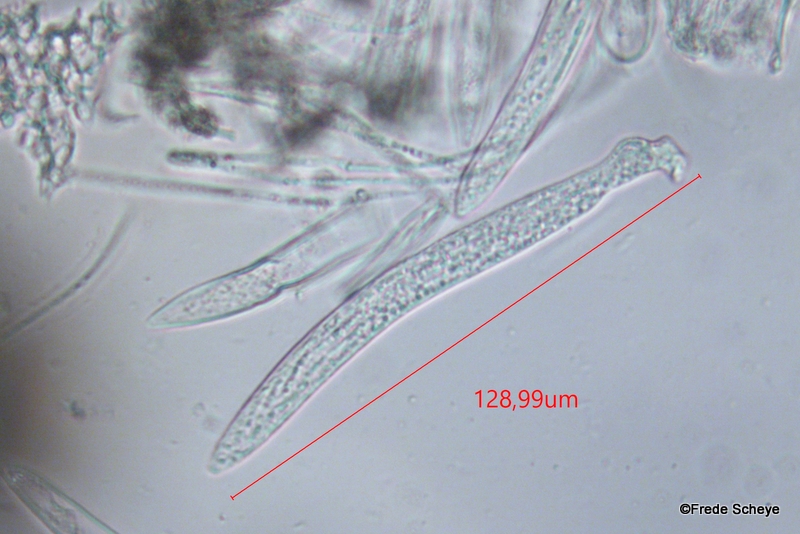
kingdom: Fungi
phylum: Ascomycota
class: Leotiomycetes
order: Rhytismatales
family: Rhytismataceae
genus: Lophodermium
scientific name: Lophodermium pinastri
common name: fyrre-fureplet
